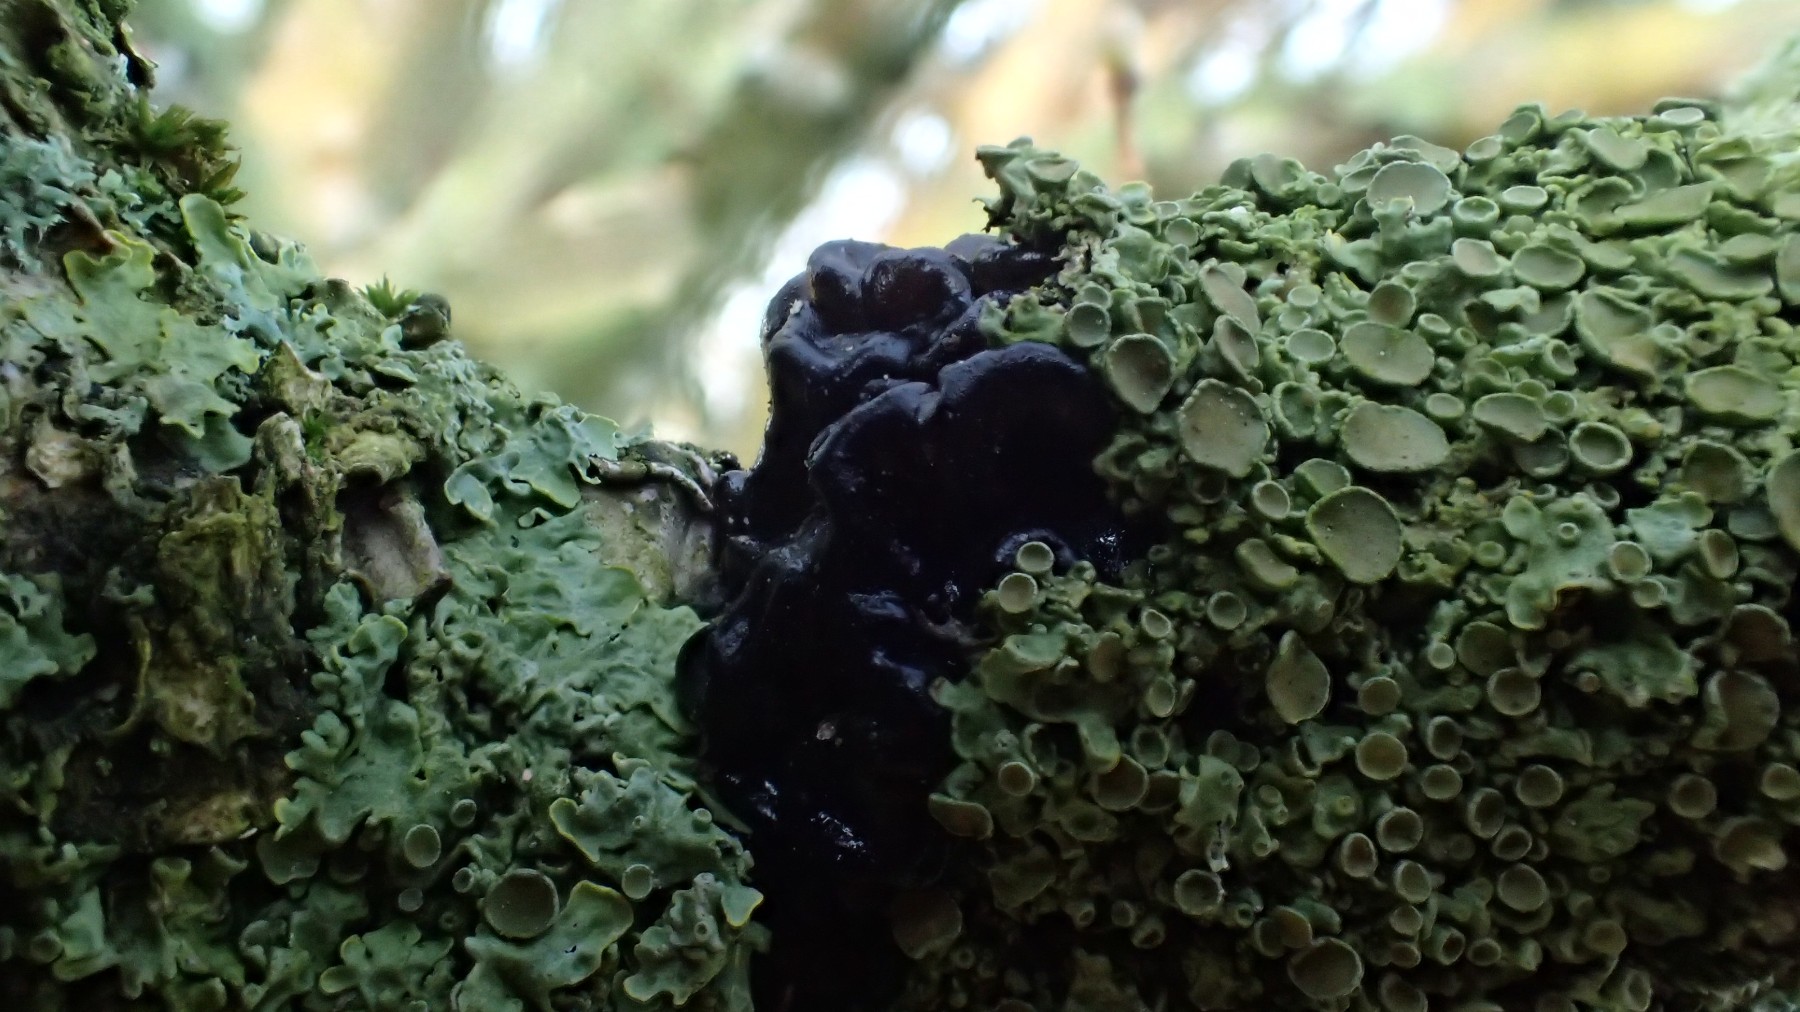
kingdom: Fungi
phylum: Basidiomycota
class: Agaricomycetes
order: Auriculariales
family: Auriculariaceae
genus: Exidia
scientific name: Exidia nigricans
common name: almindelig bævretop
